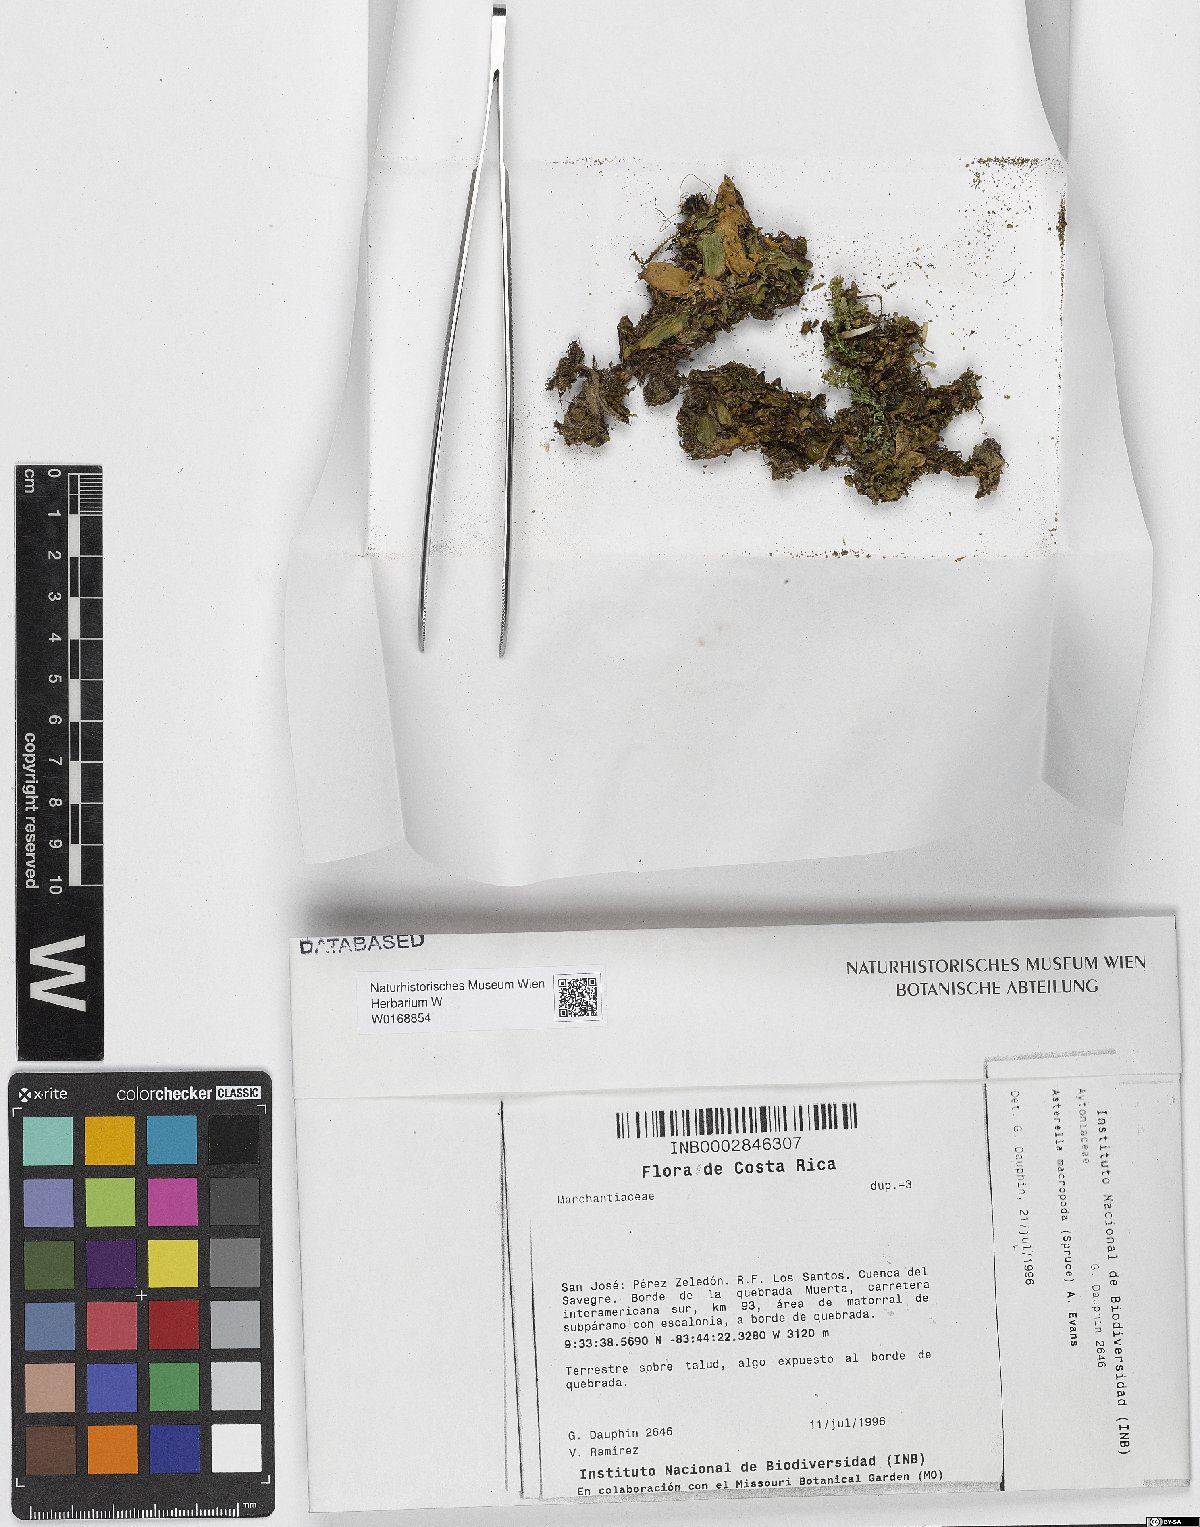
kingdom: Plantae
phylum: Marchantiophyta
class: Marchantiopsida
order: Marchantiales
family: Aytoniaceae
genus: Asterella
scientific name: Asterella macropoda
